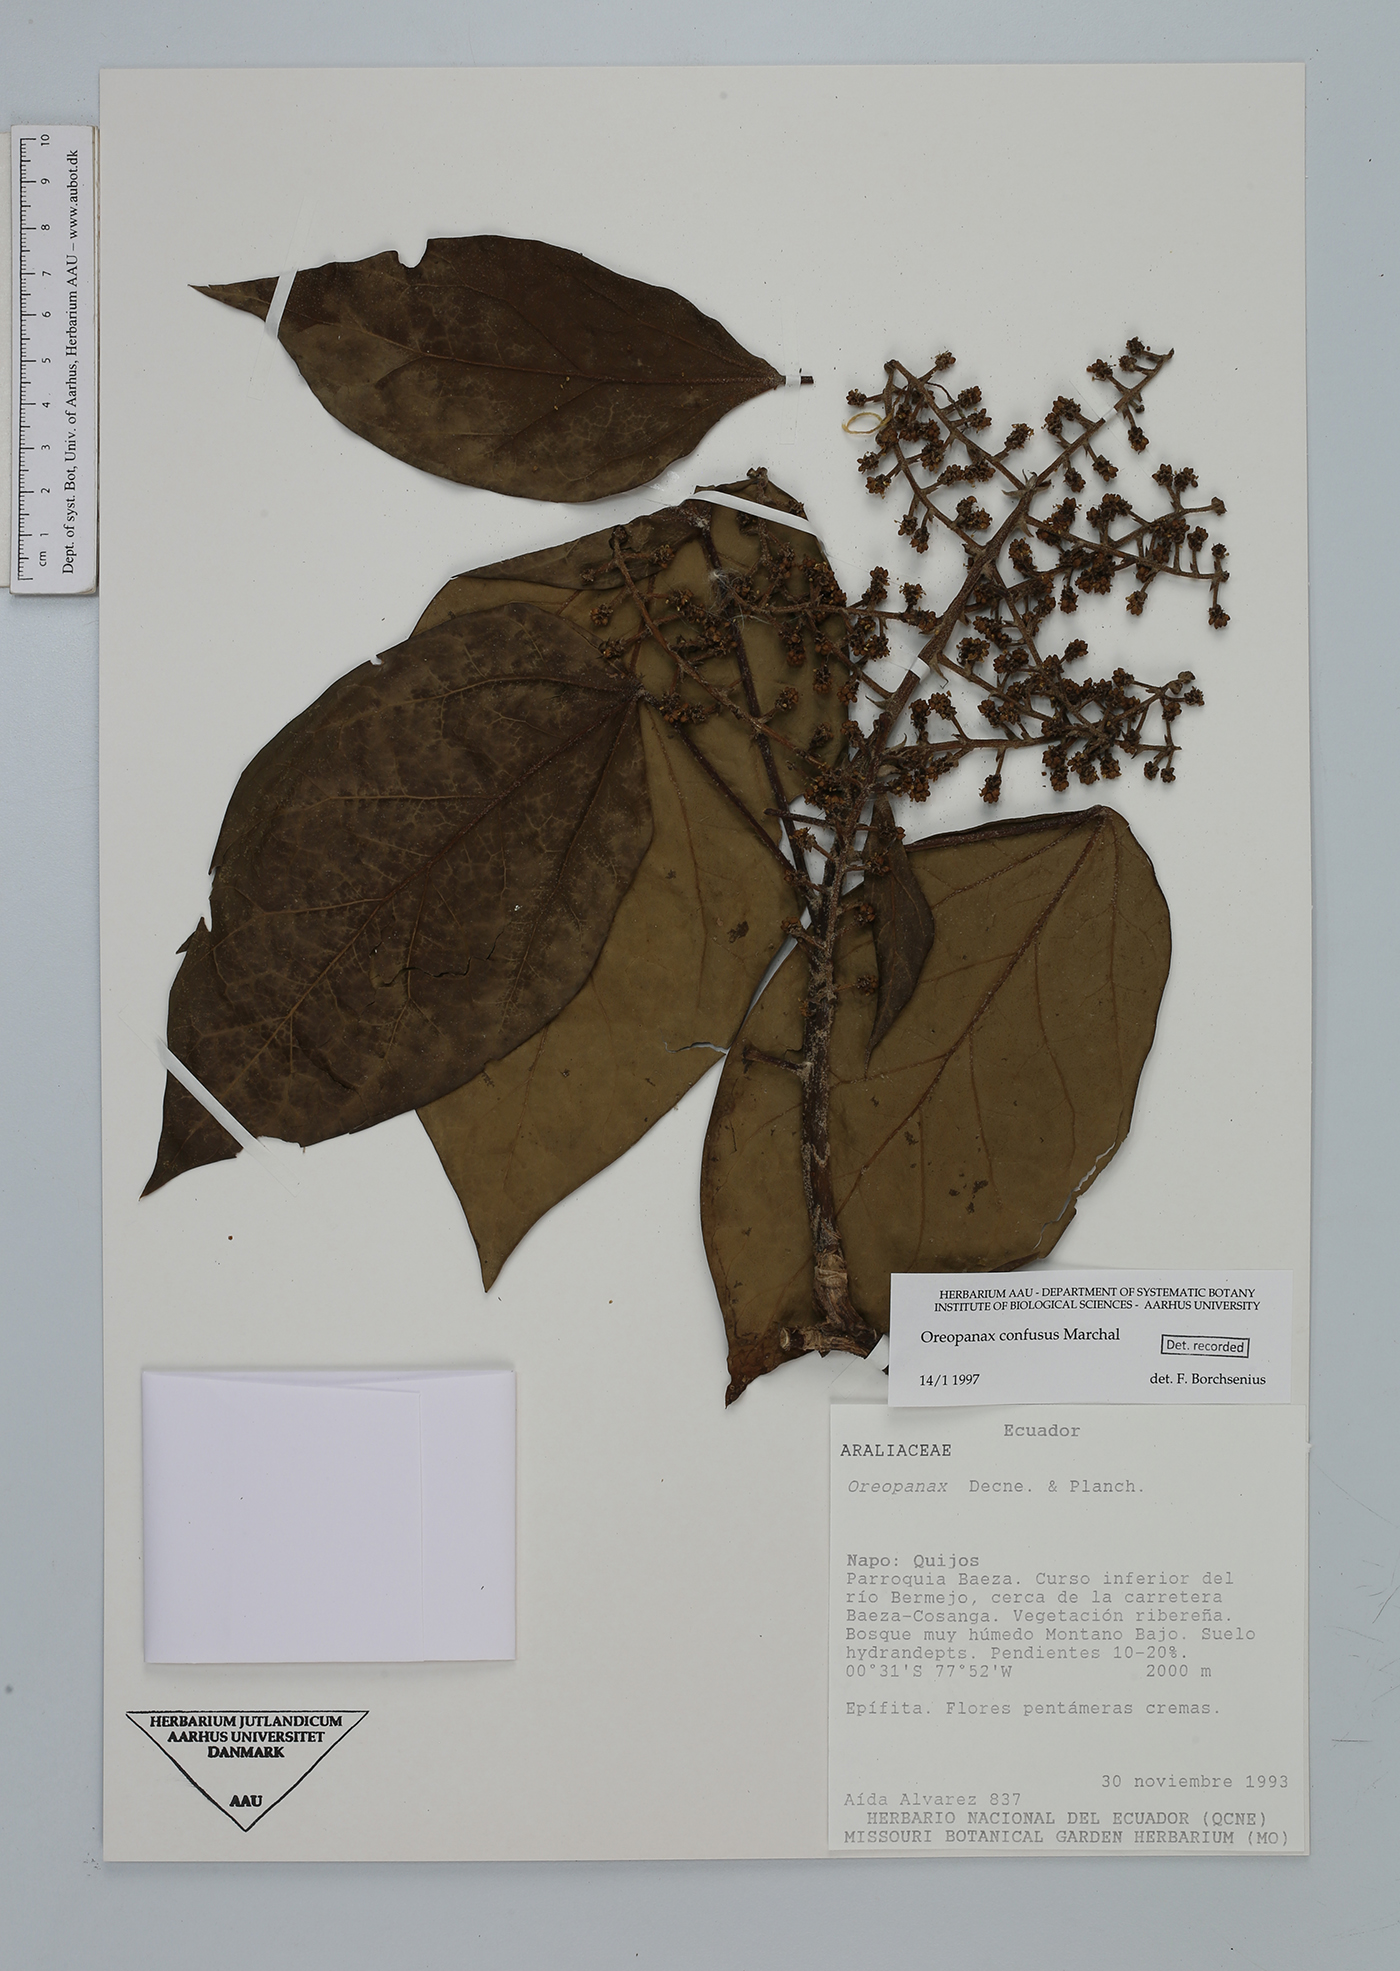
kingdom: Plantae
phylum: Tracheophyta
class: Magnoliopsida
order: Apiales
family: Araliaceae
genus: Oreopanax
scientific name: Oreopanax confusus
